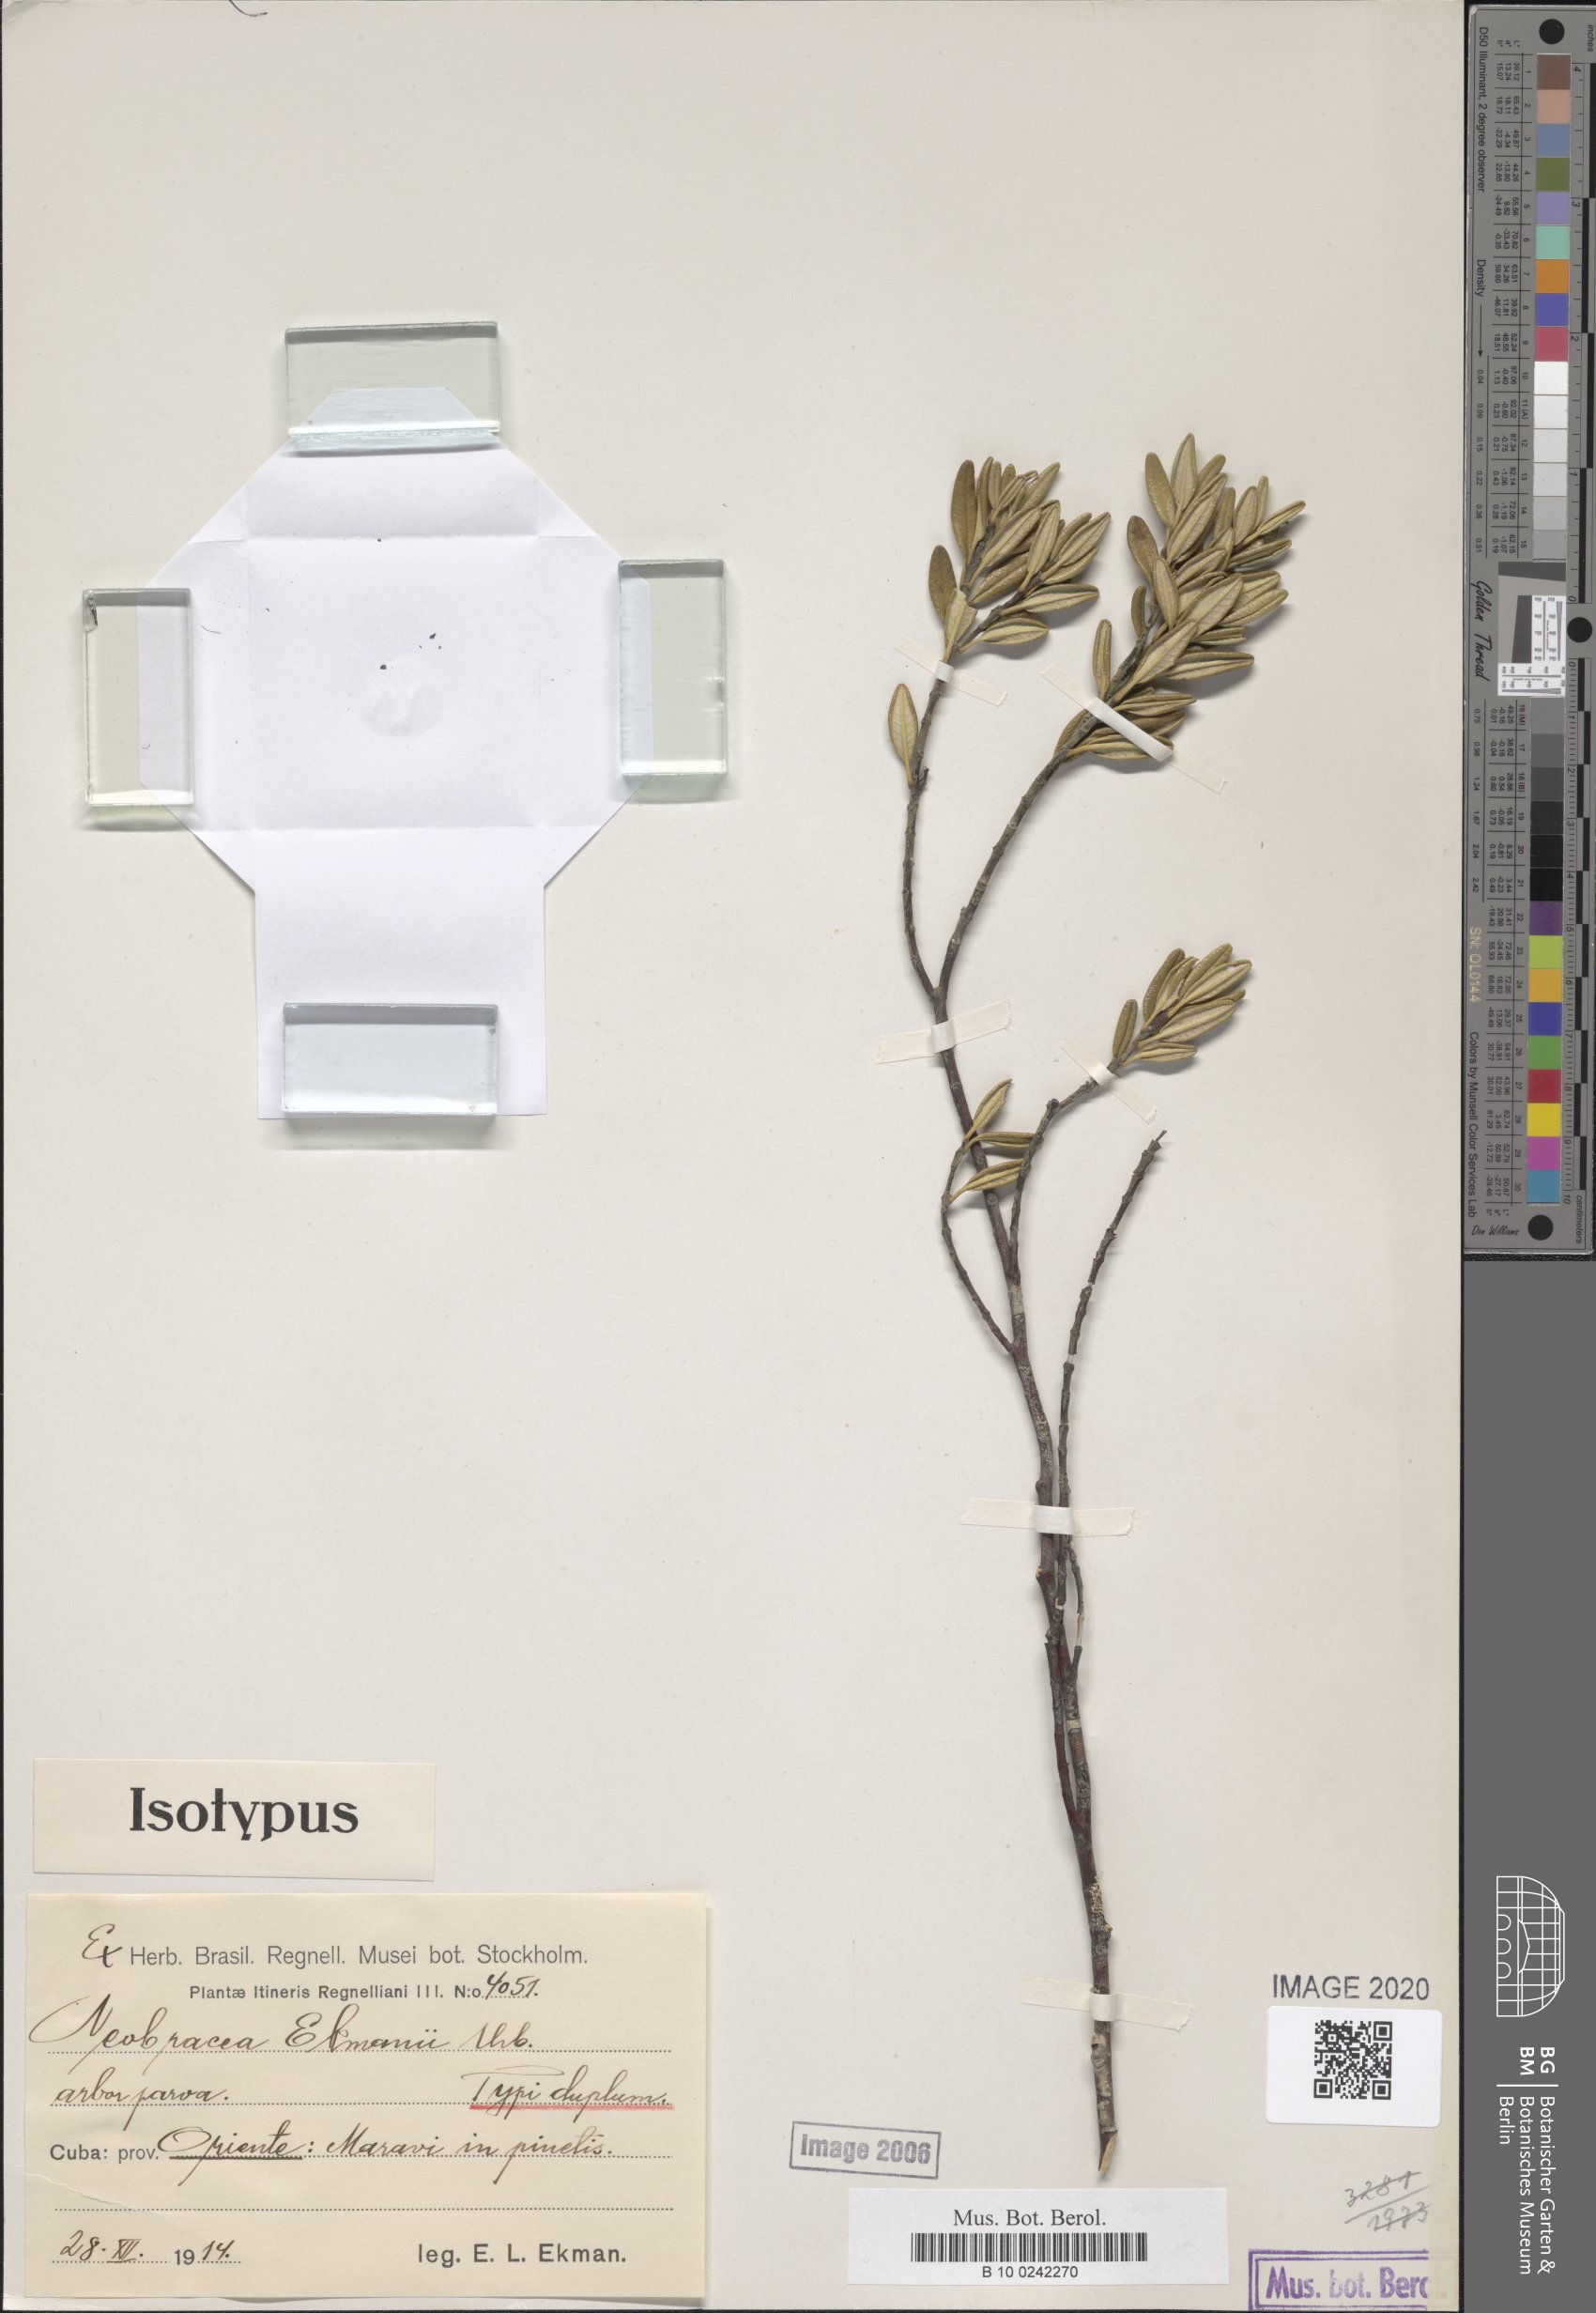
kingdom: Plantae
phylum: Tracheophyta
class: Magnoliopsida
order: Gentianales
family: Apocynaceae
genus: Neobracea
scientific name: Neobracea ekmanii
